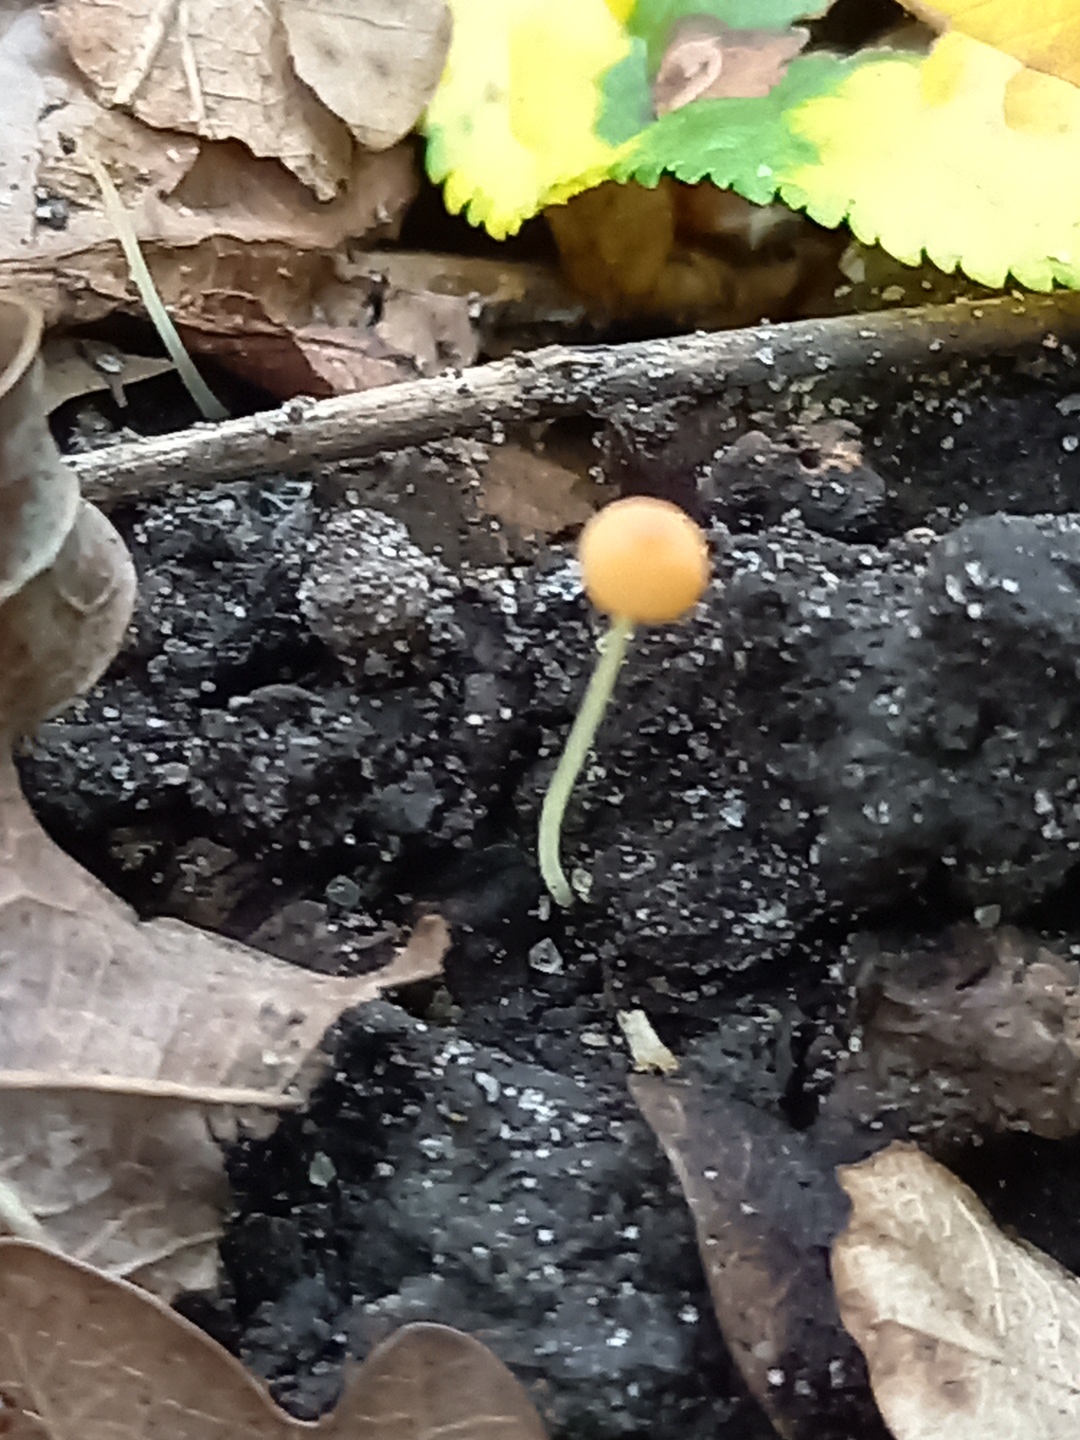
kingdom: Fungi
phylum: Basidiomycota
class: Agaricomycetes
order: Agaricales
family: Mycenaceae
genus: Mycena
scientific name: Mycena acicula
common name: orange huesvamp
